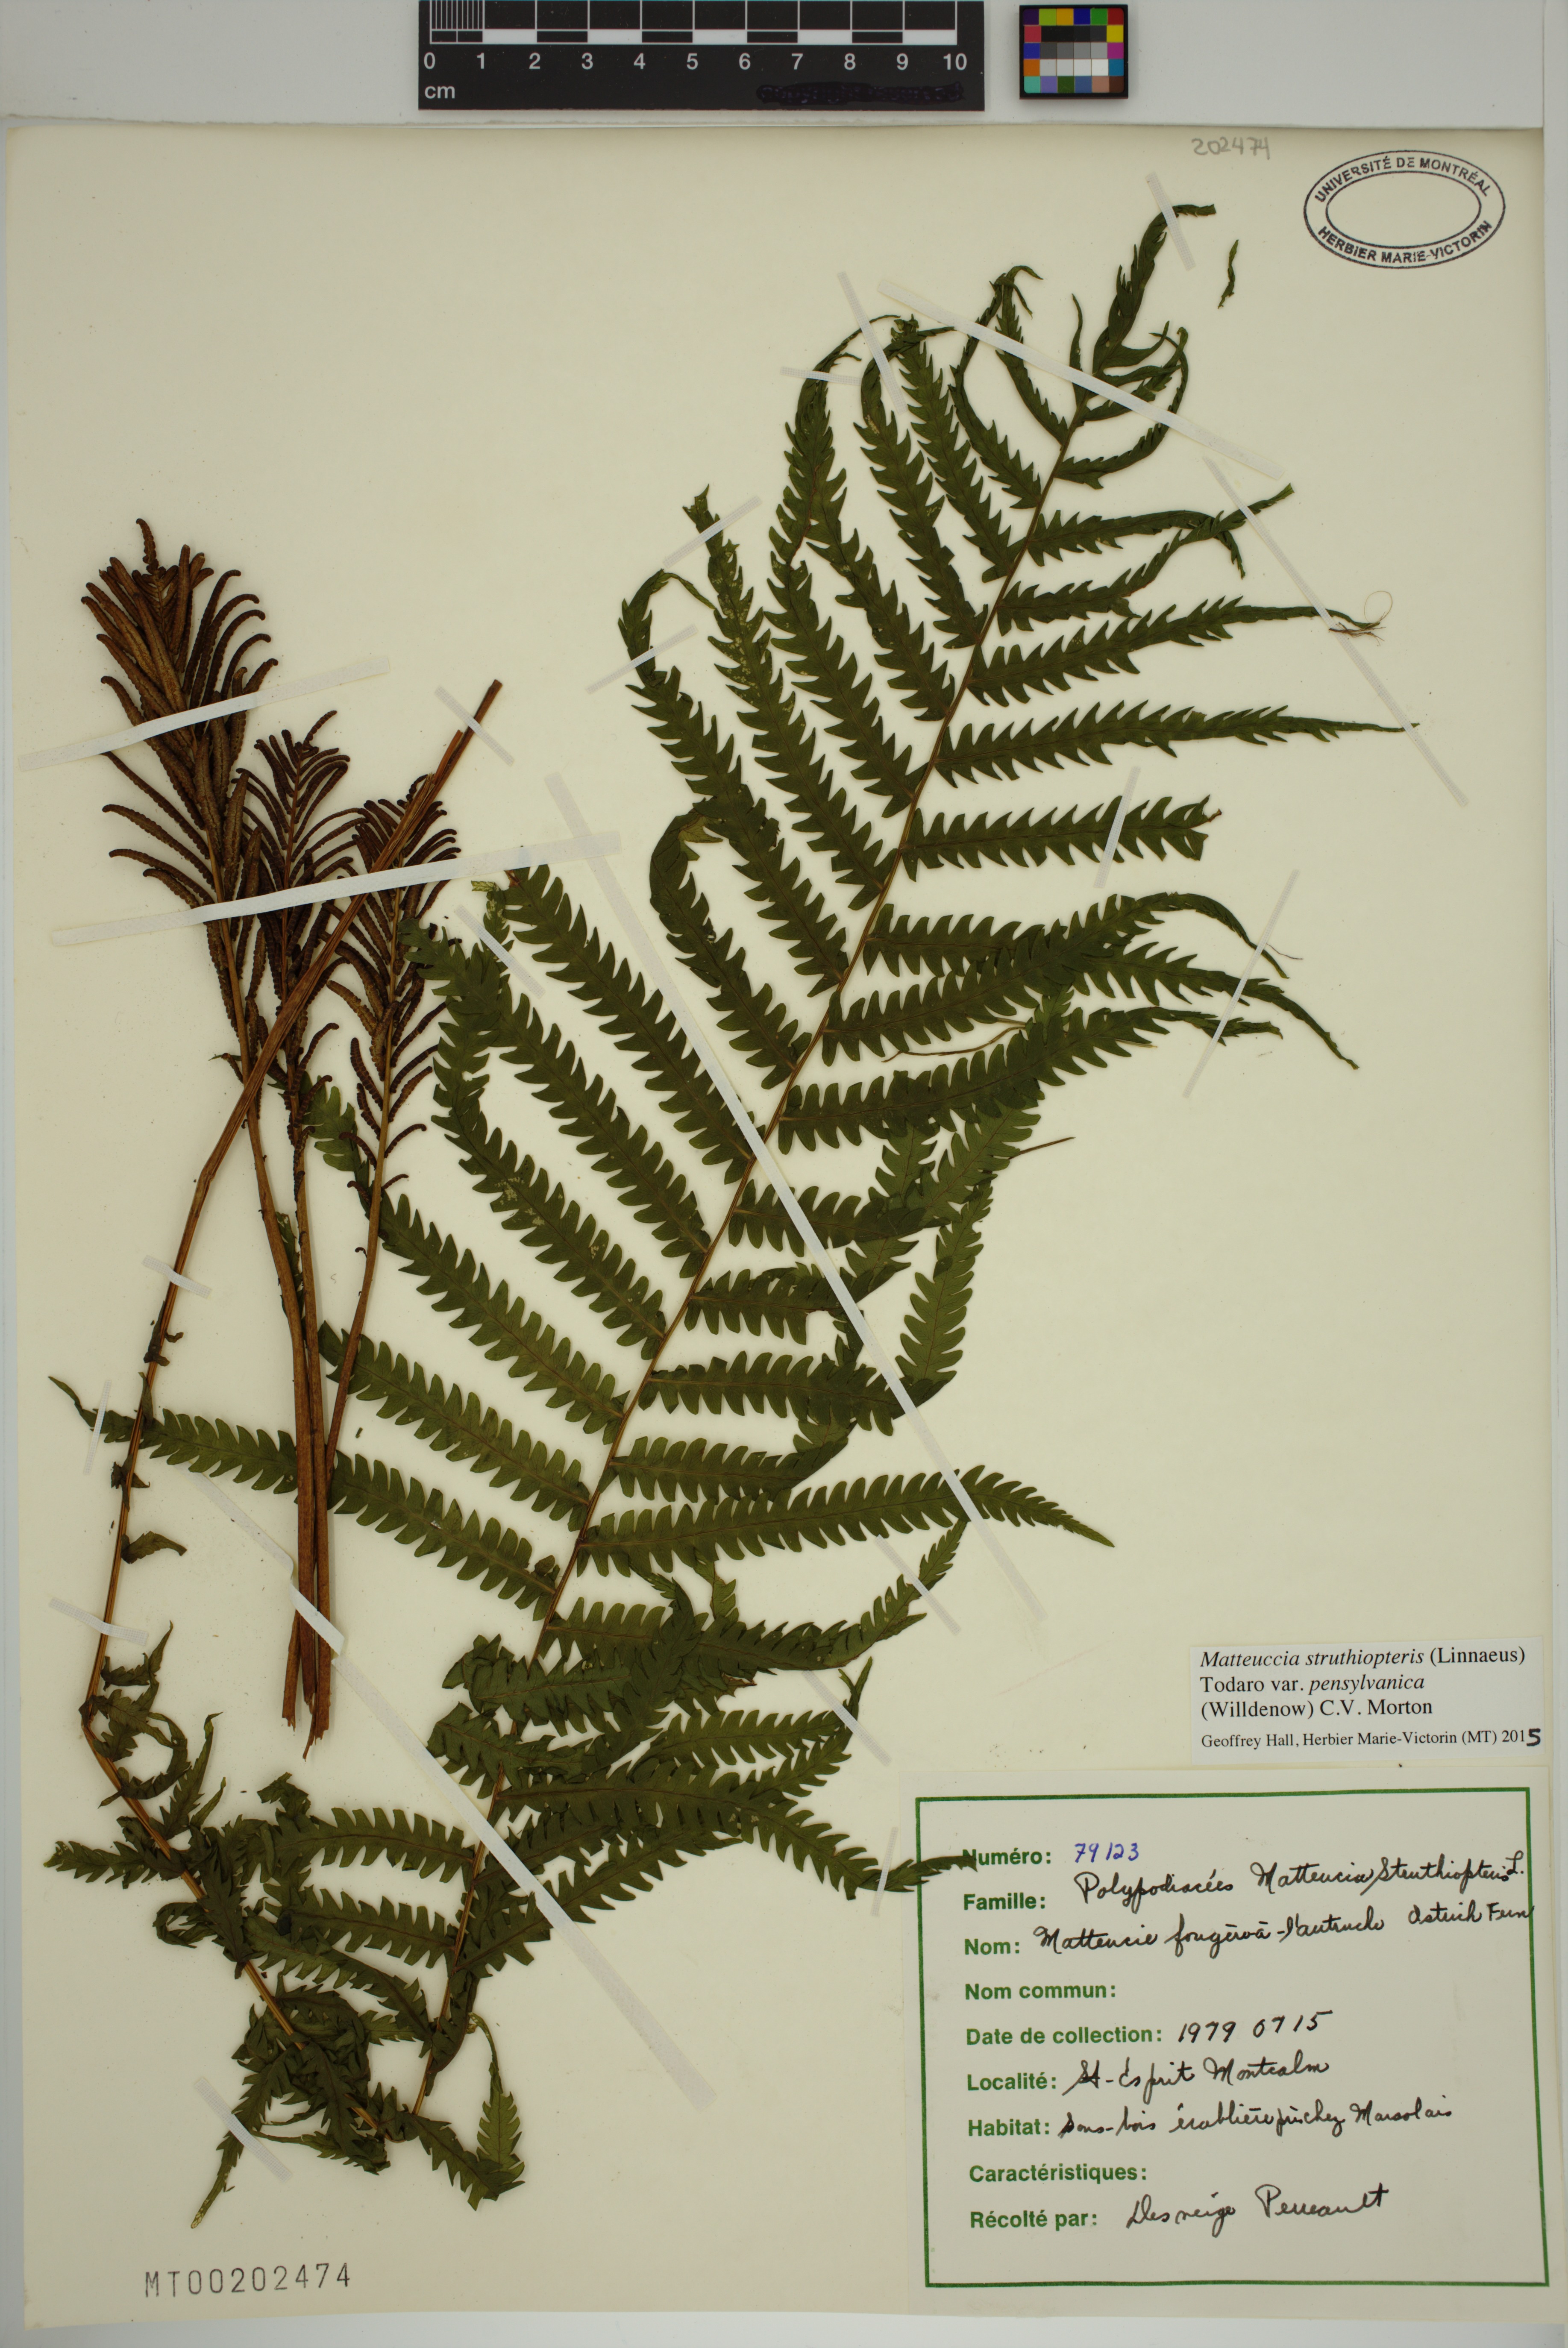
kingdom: Plantae
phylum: Tracheophyta
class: Polypodiopsida
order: Polypodiales
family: Onocleaceae
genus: Matteuccia
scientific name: Matteuccia pensylvanica
